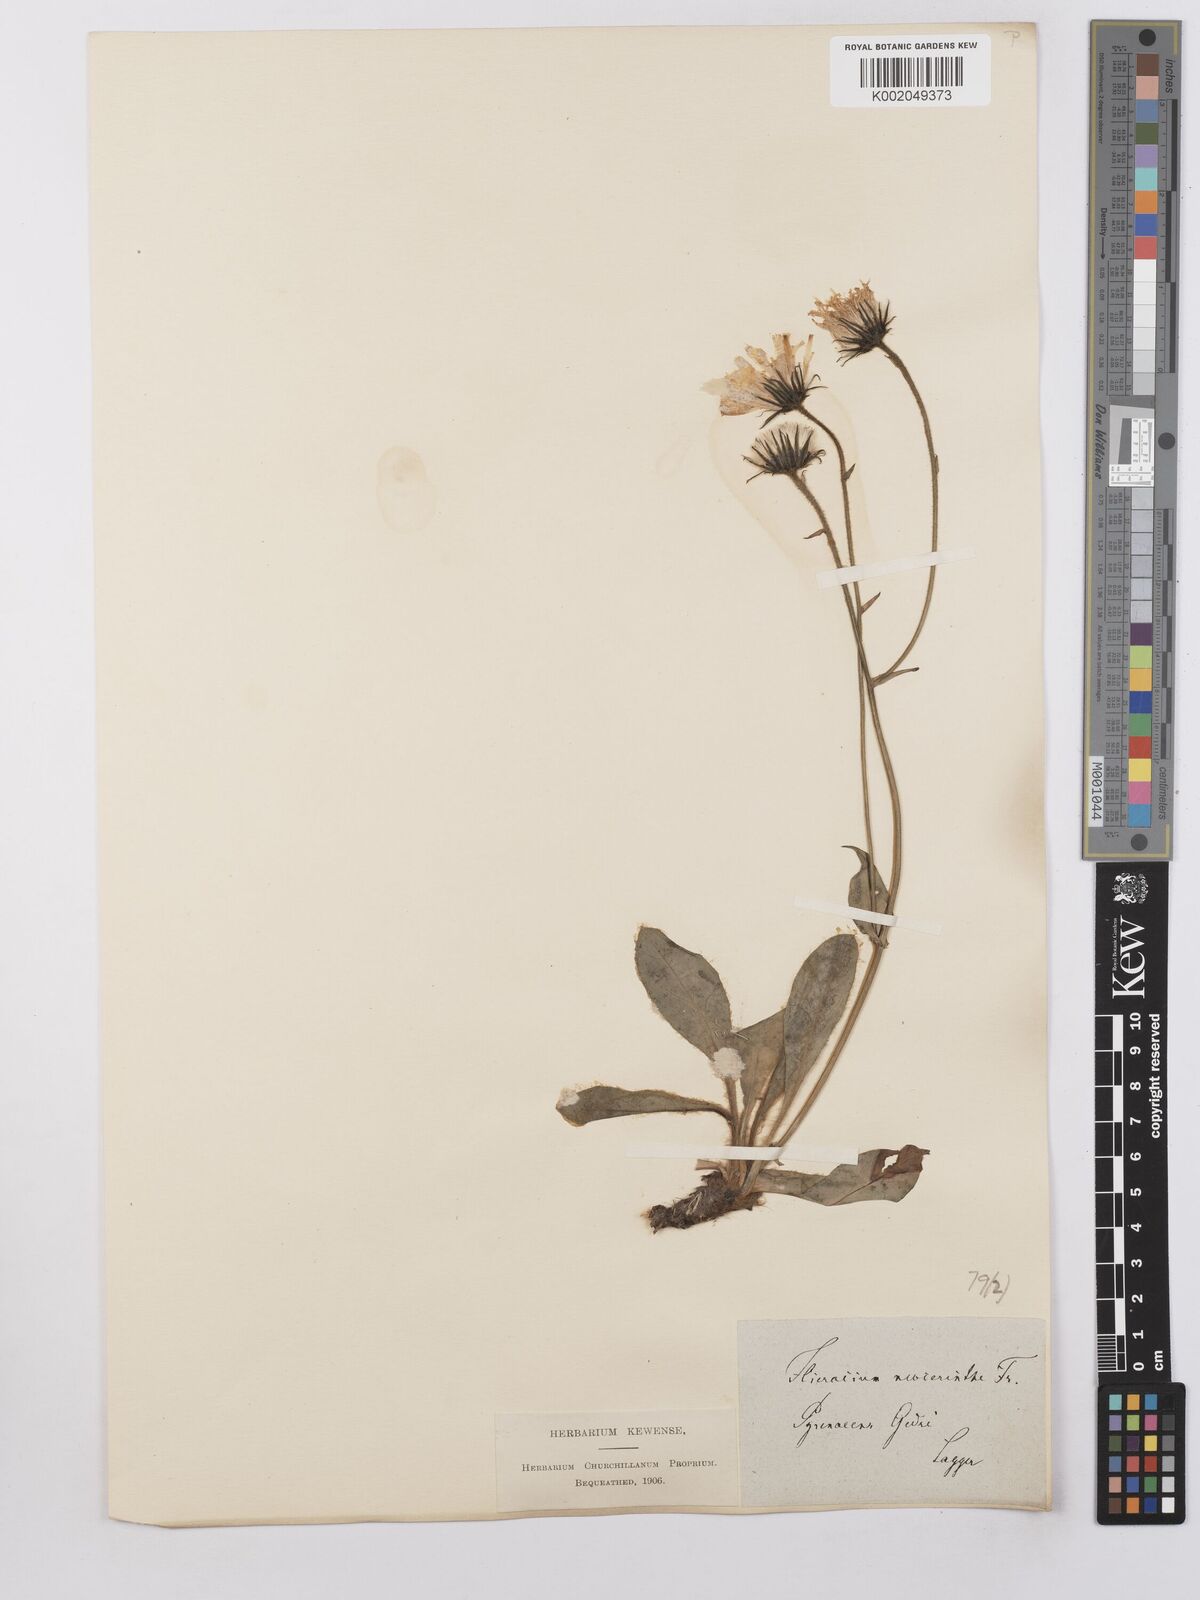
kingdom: Plantae
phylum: Tracheophyta
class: Magnoliopsida
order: Asterales
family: Asteraceae
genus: Hieracium
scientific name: Hieracium cerinthoides
